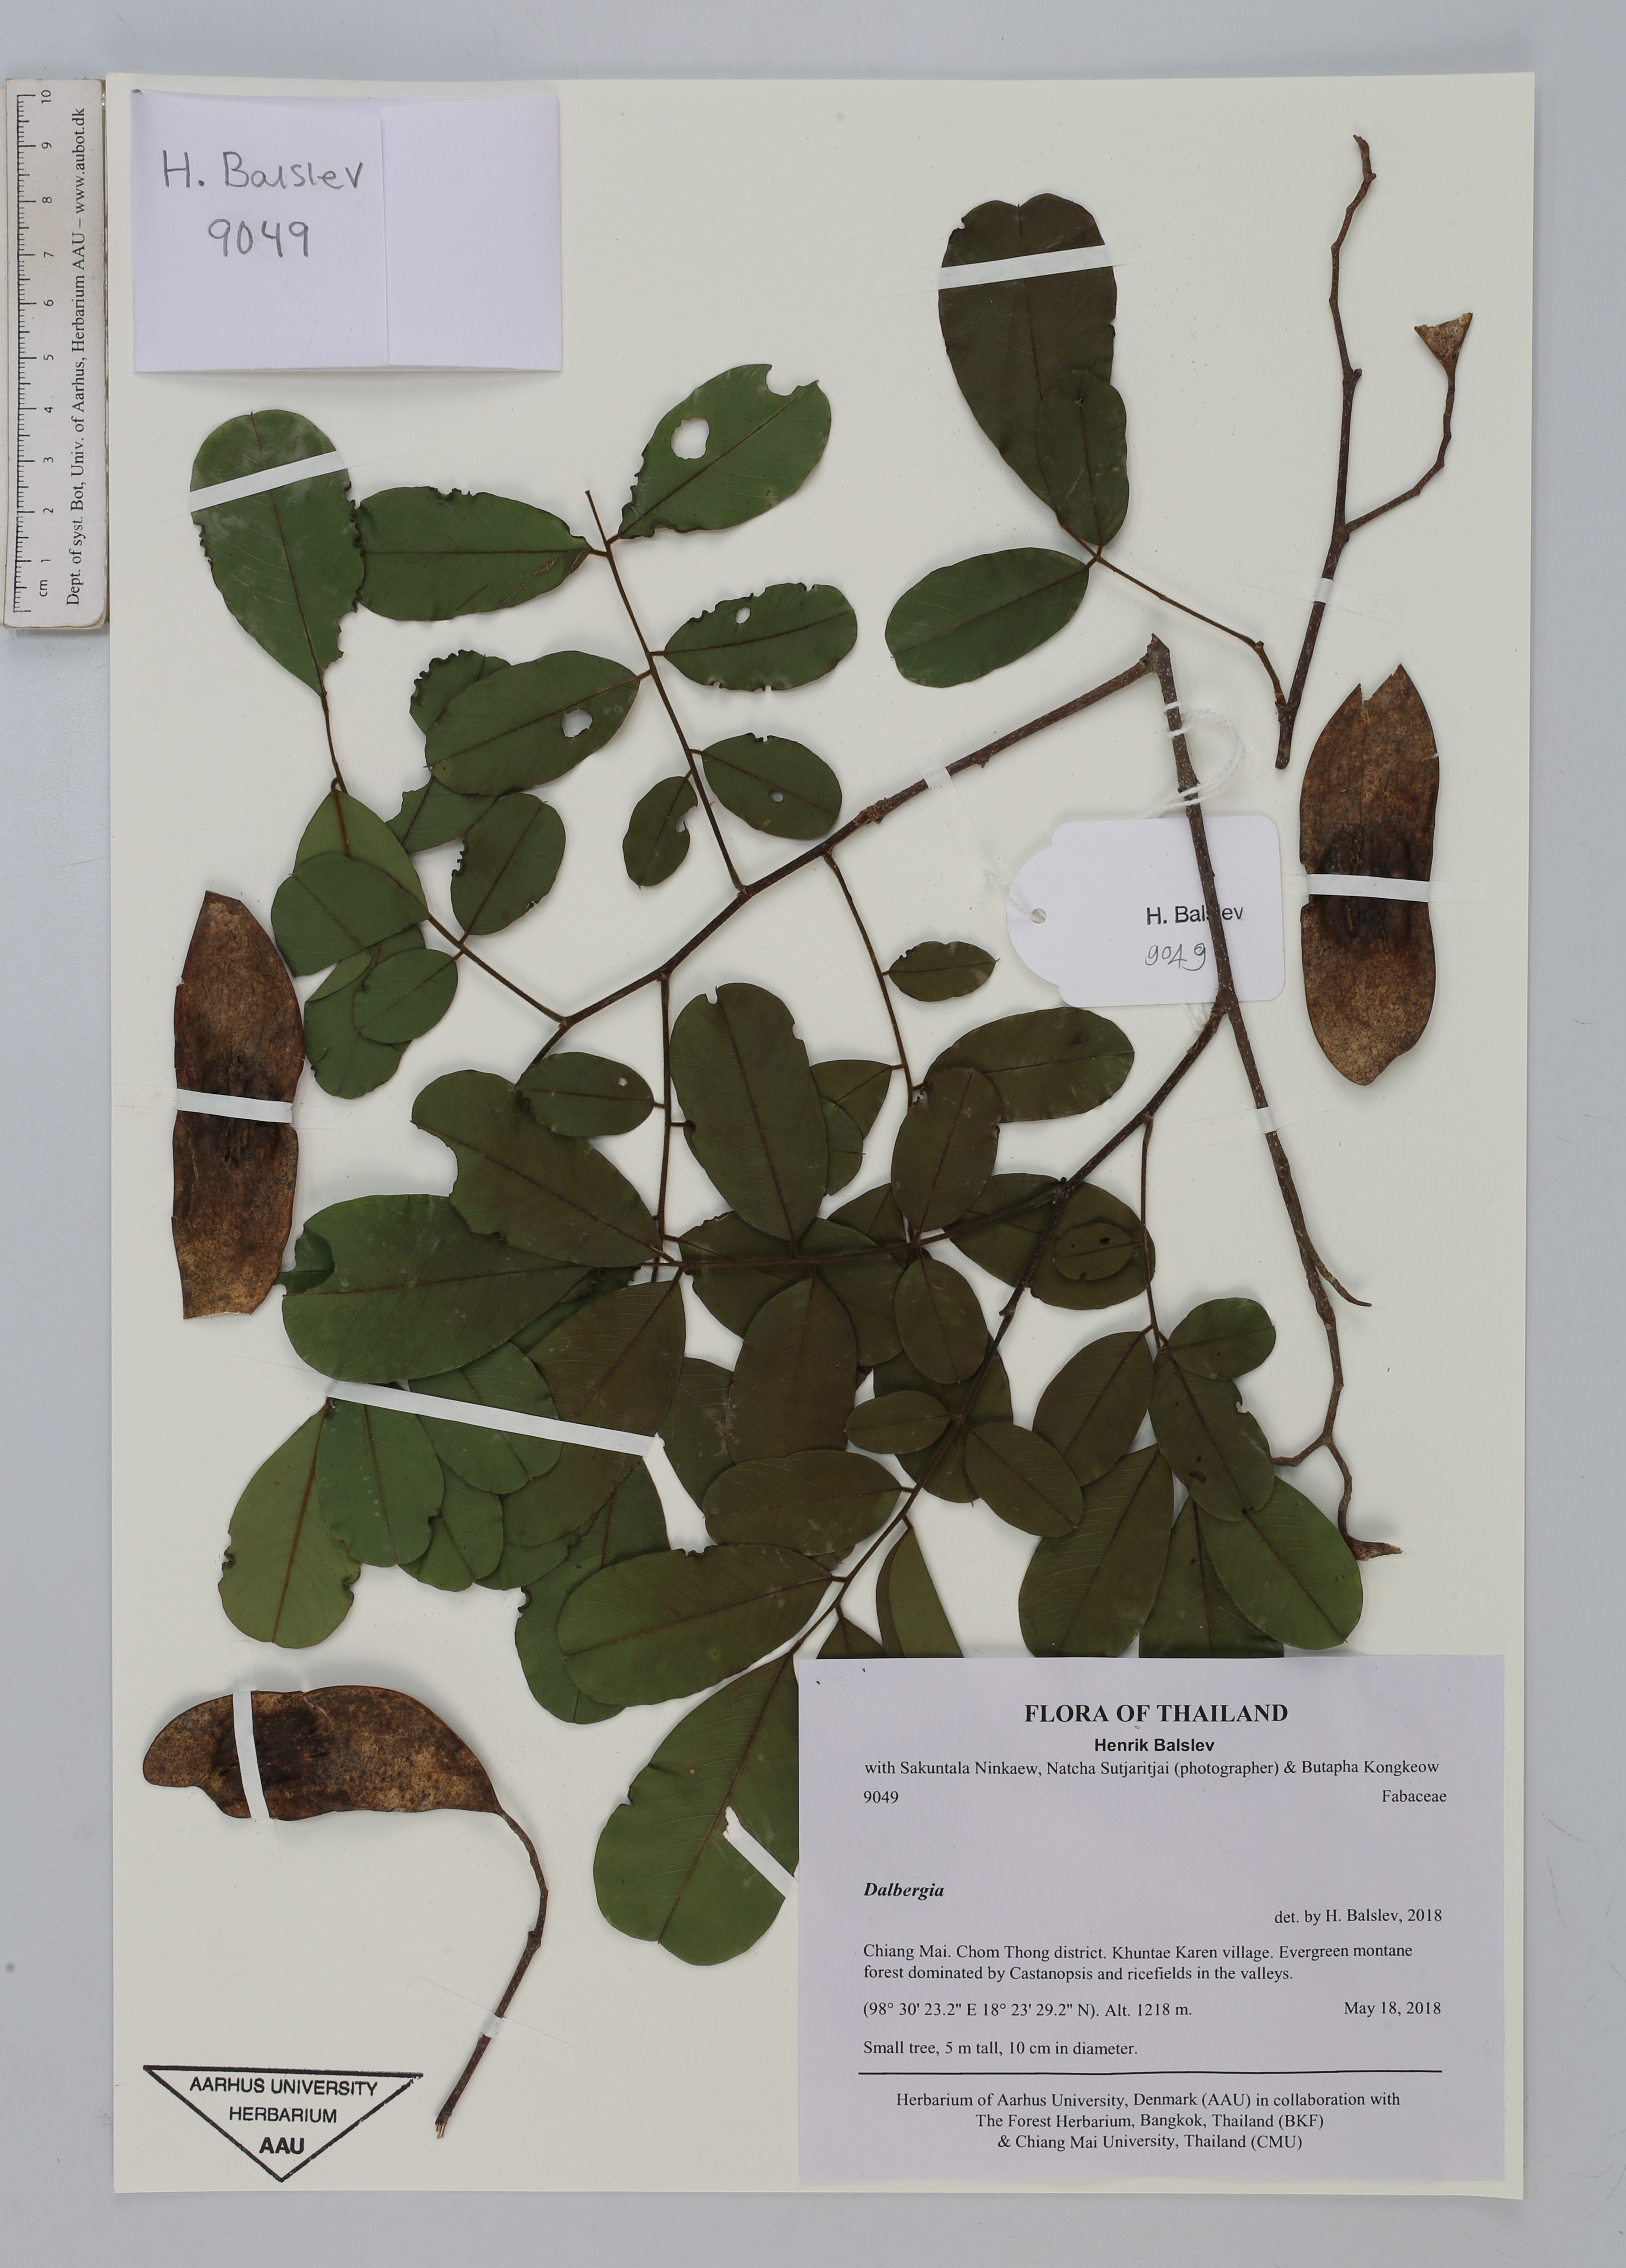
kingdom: Plantae
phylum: Tracheophyta
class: Magnoliopsida
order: Fabales
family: Fabaceae
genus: Dalbergia
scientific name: Dalbergia
